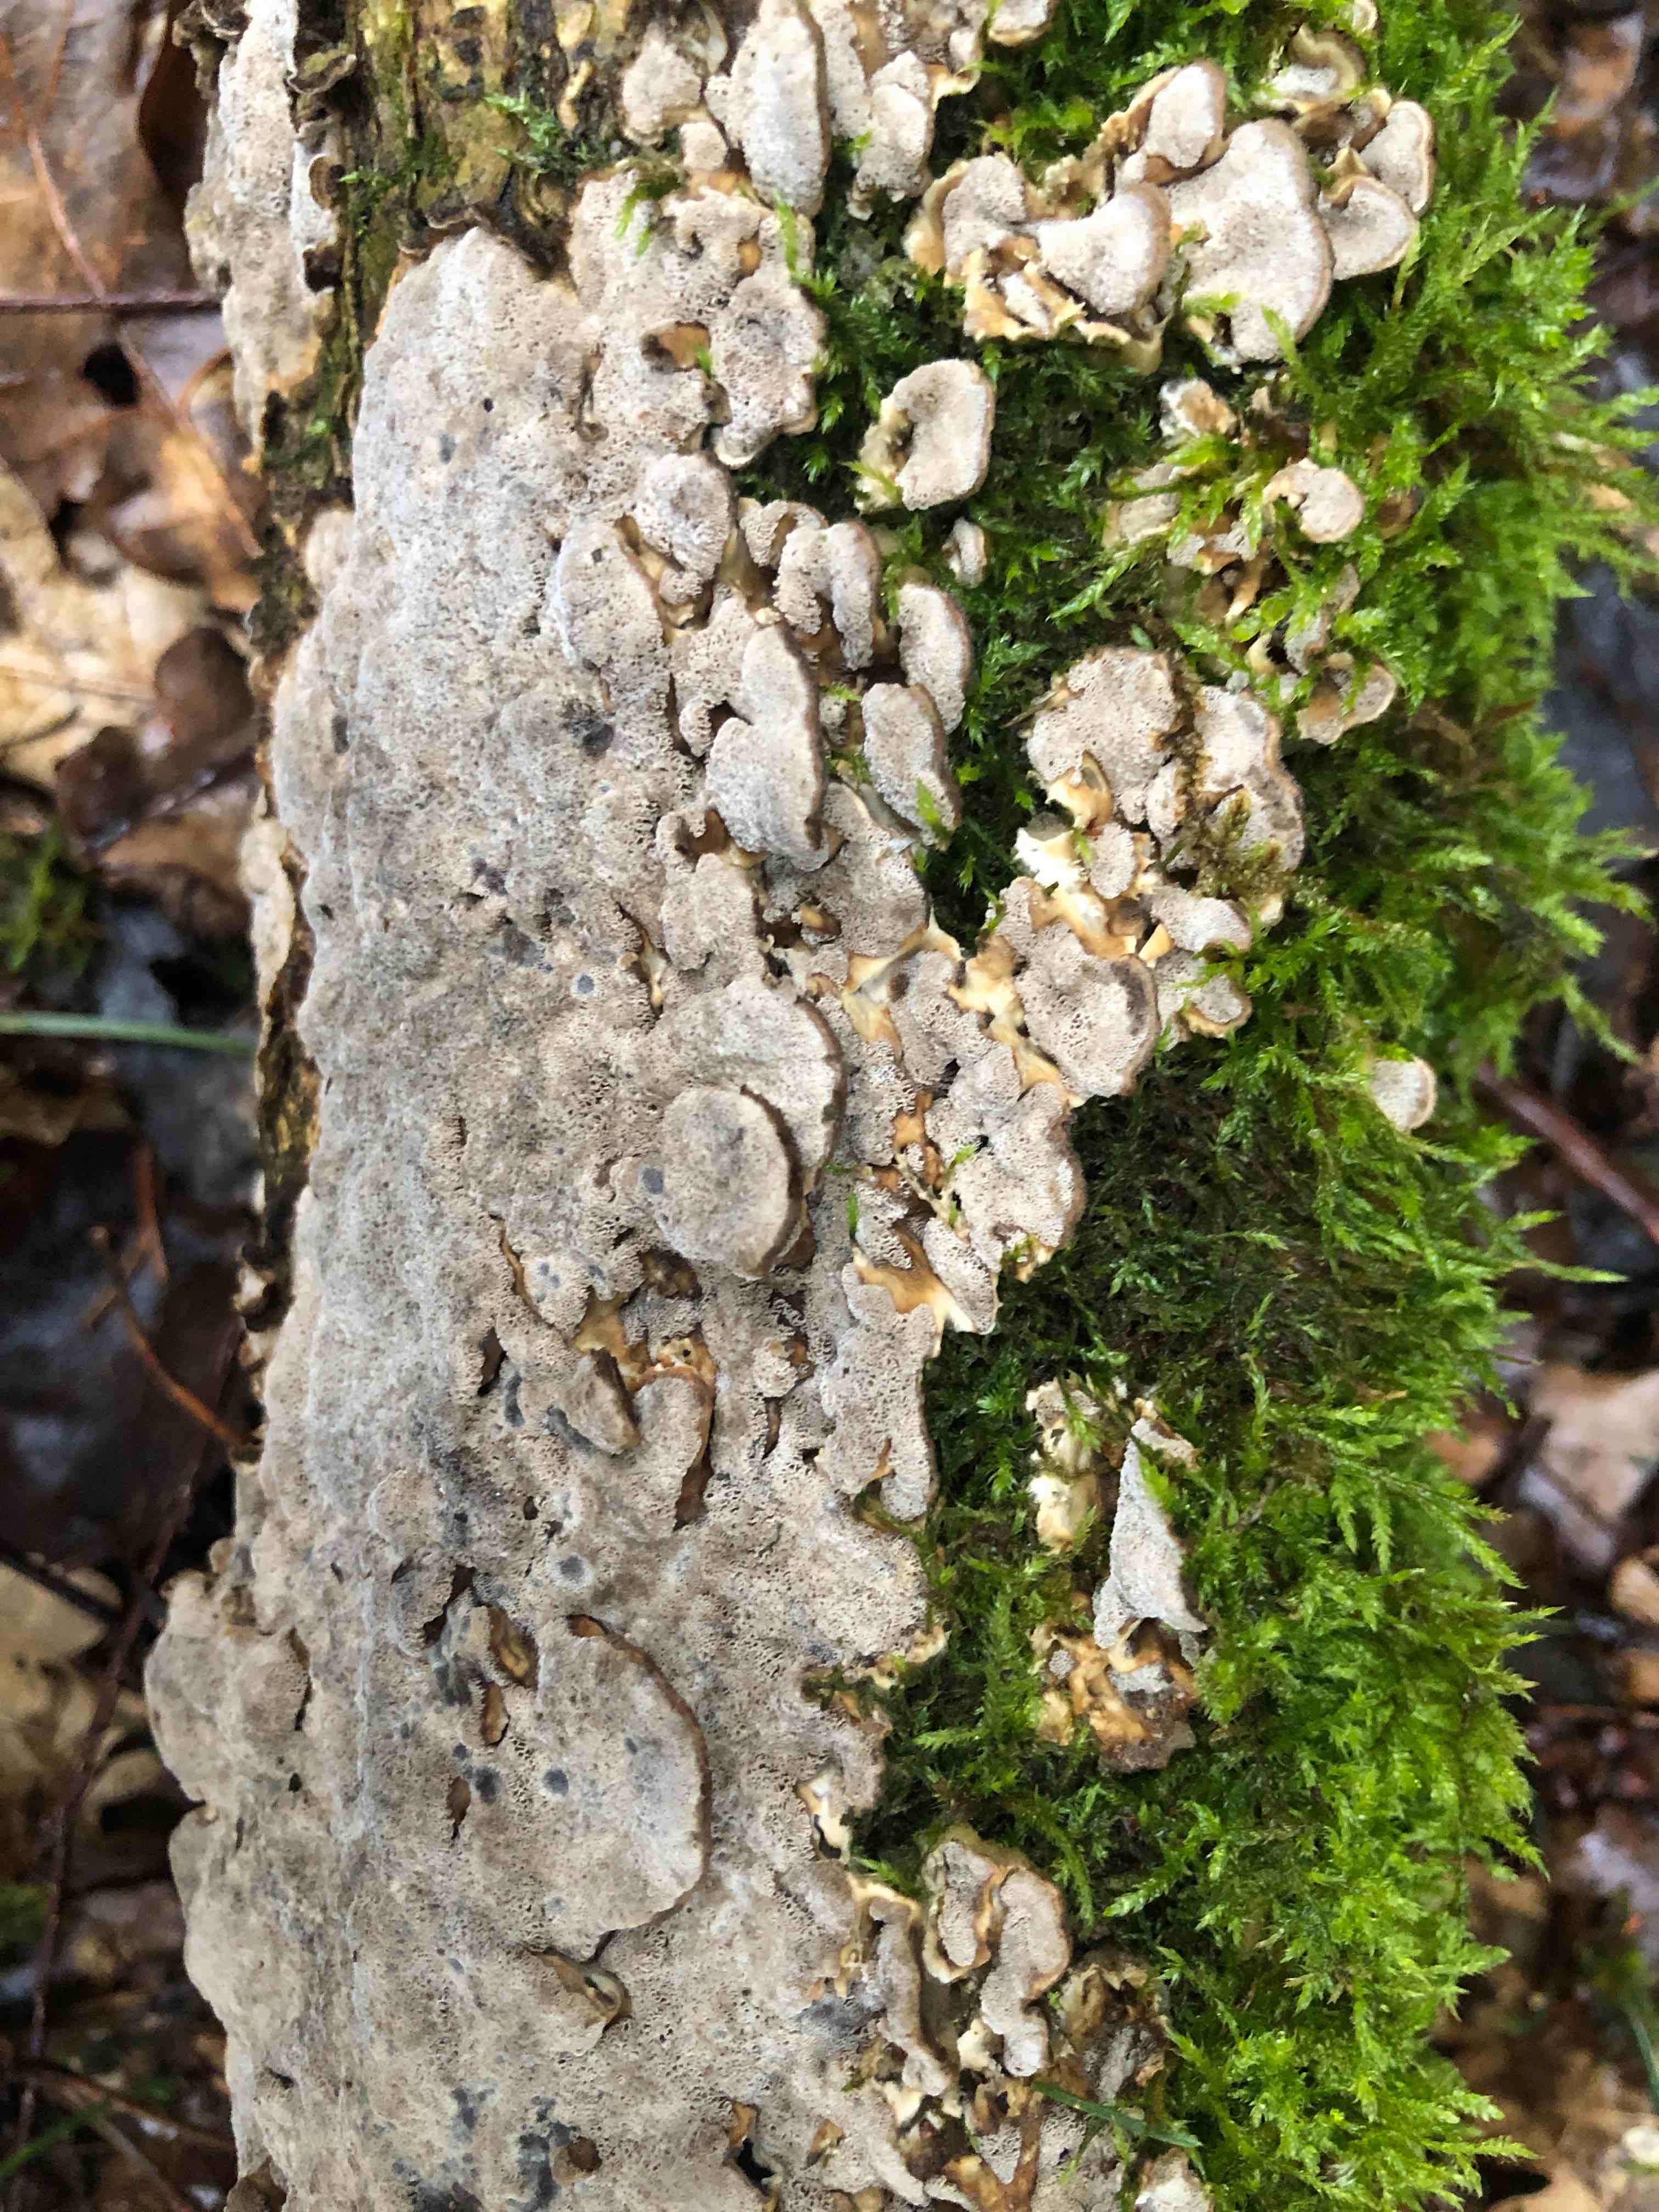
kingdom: Fungi
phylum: Basidiomycota
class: Agaricomycetes
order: Polyporales
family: Phanerochaetaceae
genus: Bjerkandera
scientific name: Bjerkandera adusta
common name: sveden sodporesvamp
